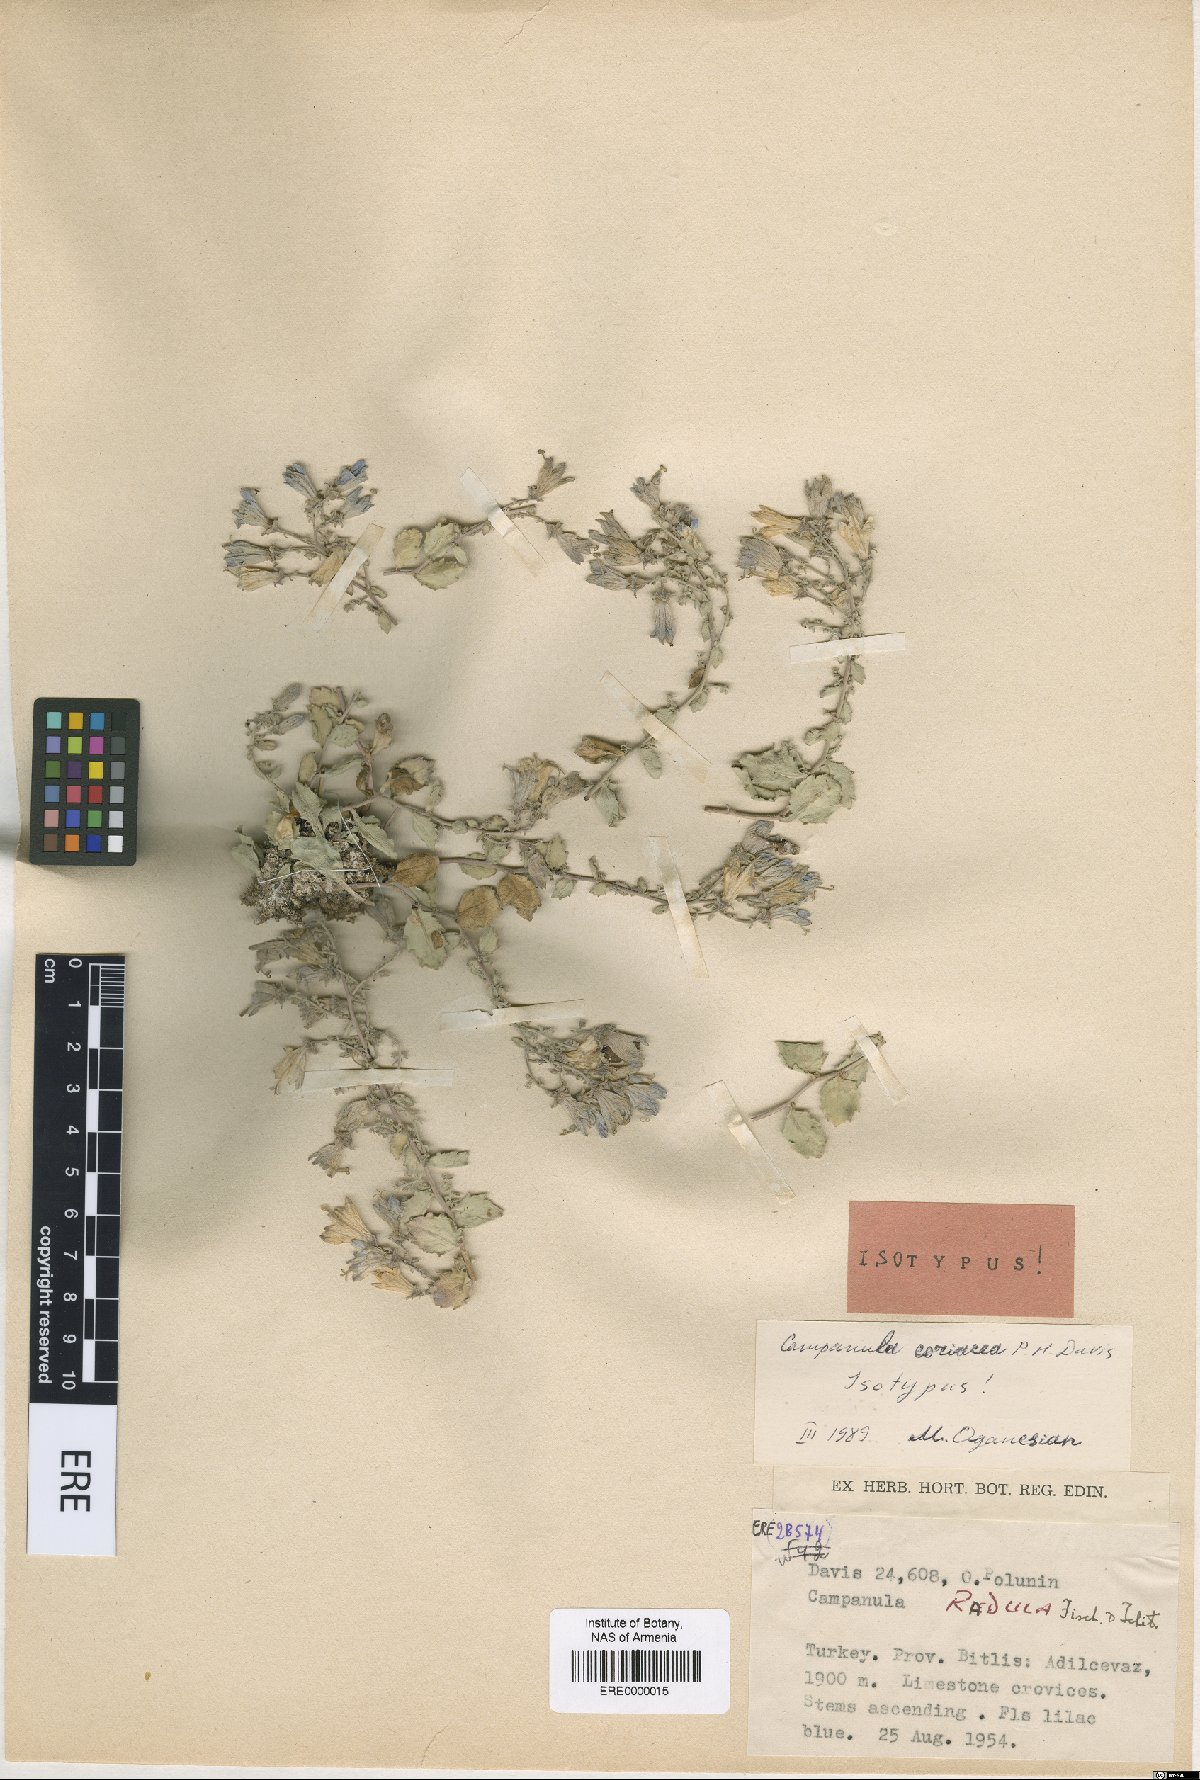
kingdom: Plantae
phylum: Tracheophyta
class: Magnoliopsida
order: Asterales
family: Campanulaceae
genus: Campanula
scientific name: Campanula coriacea
